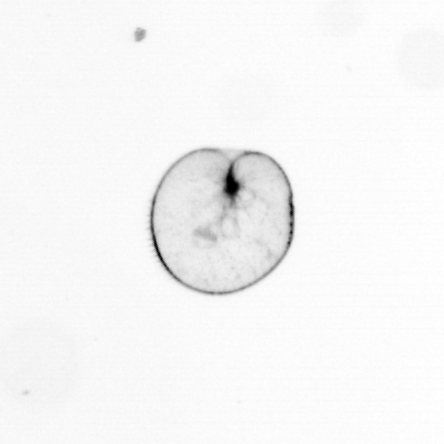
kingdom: Chromista
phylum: Myzozoa
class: Dinophyceae
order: Noctilucales
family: Noctilucaceae
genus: Noctiluca
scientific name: Noctiluca scintillans
